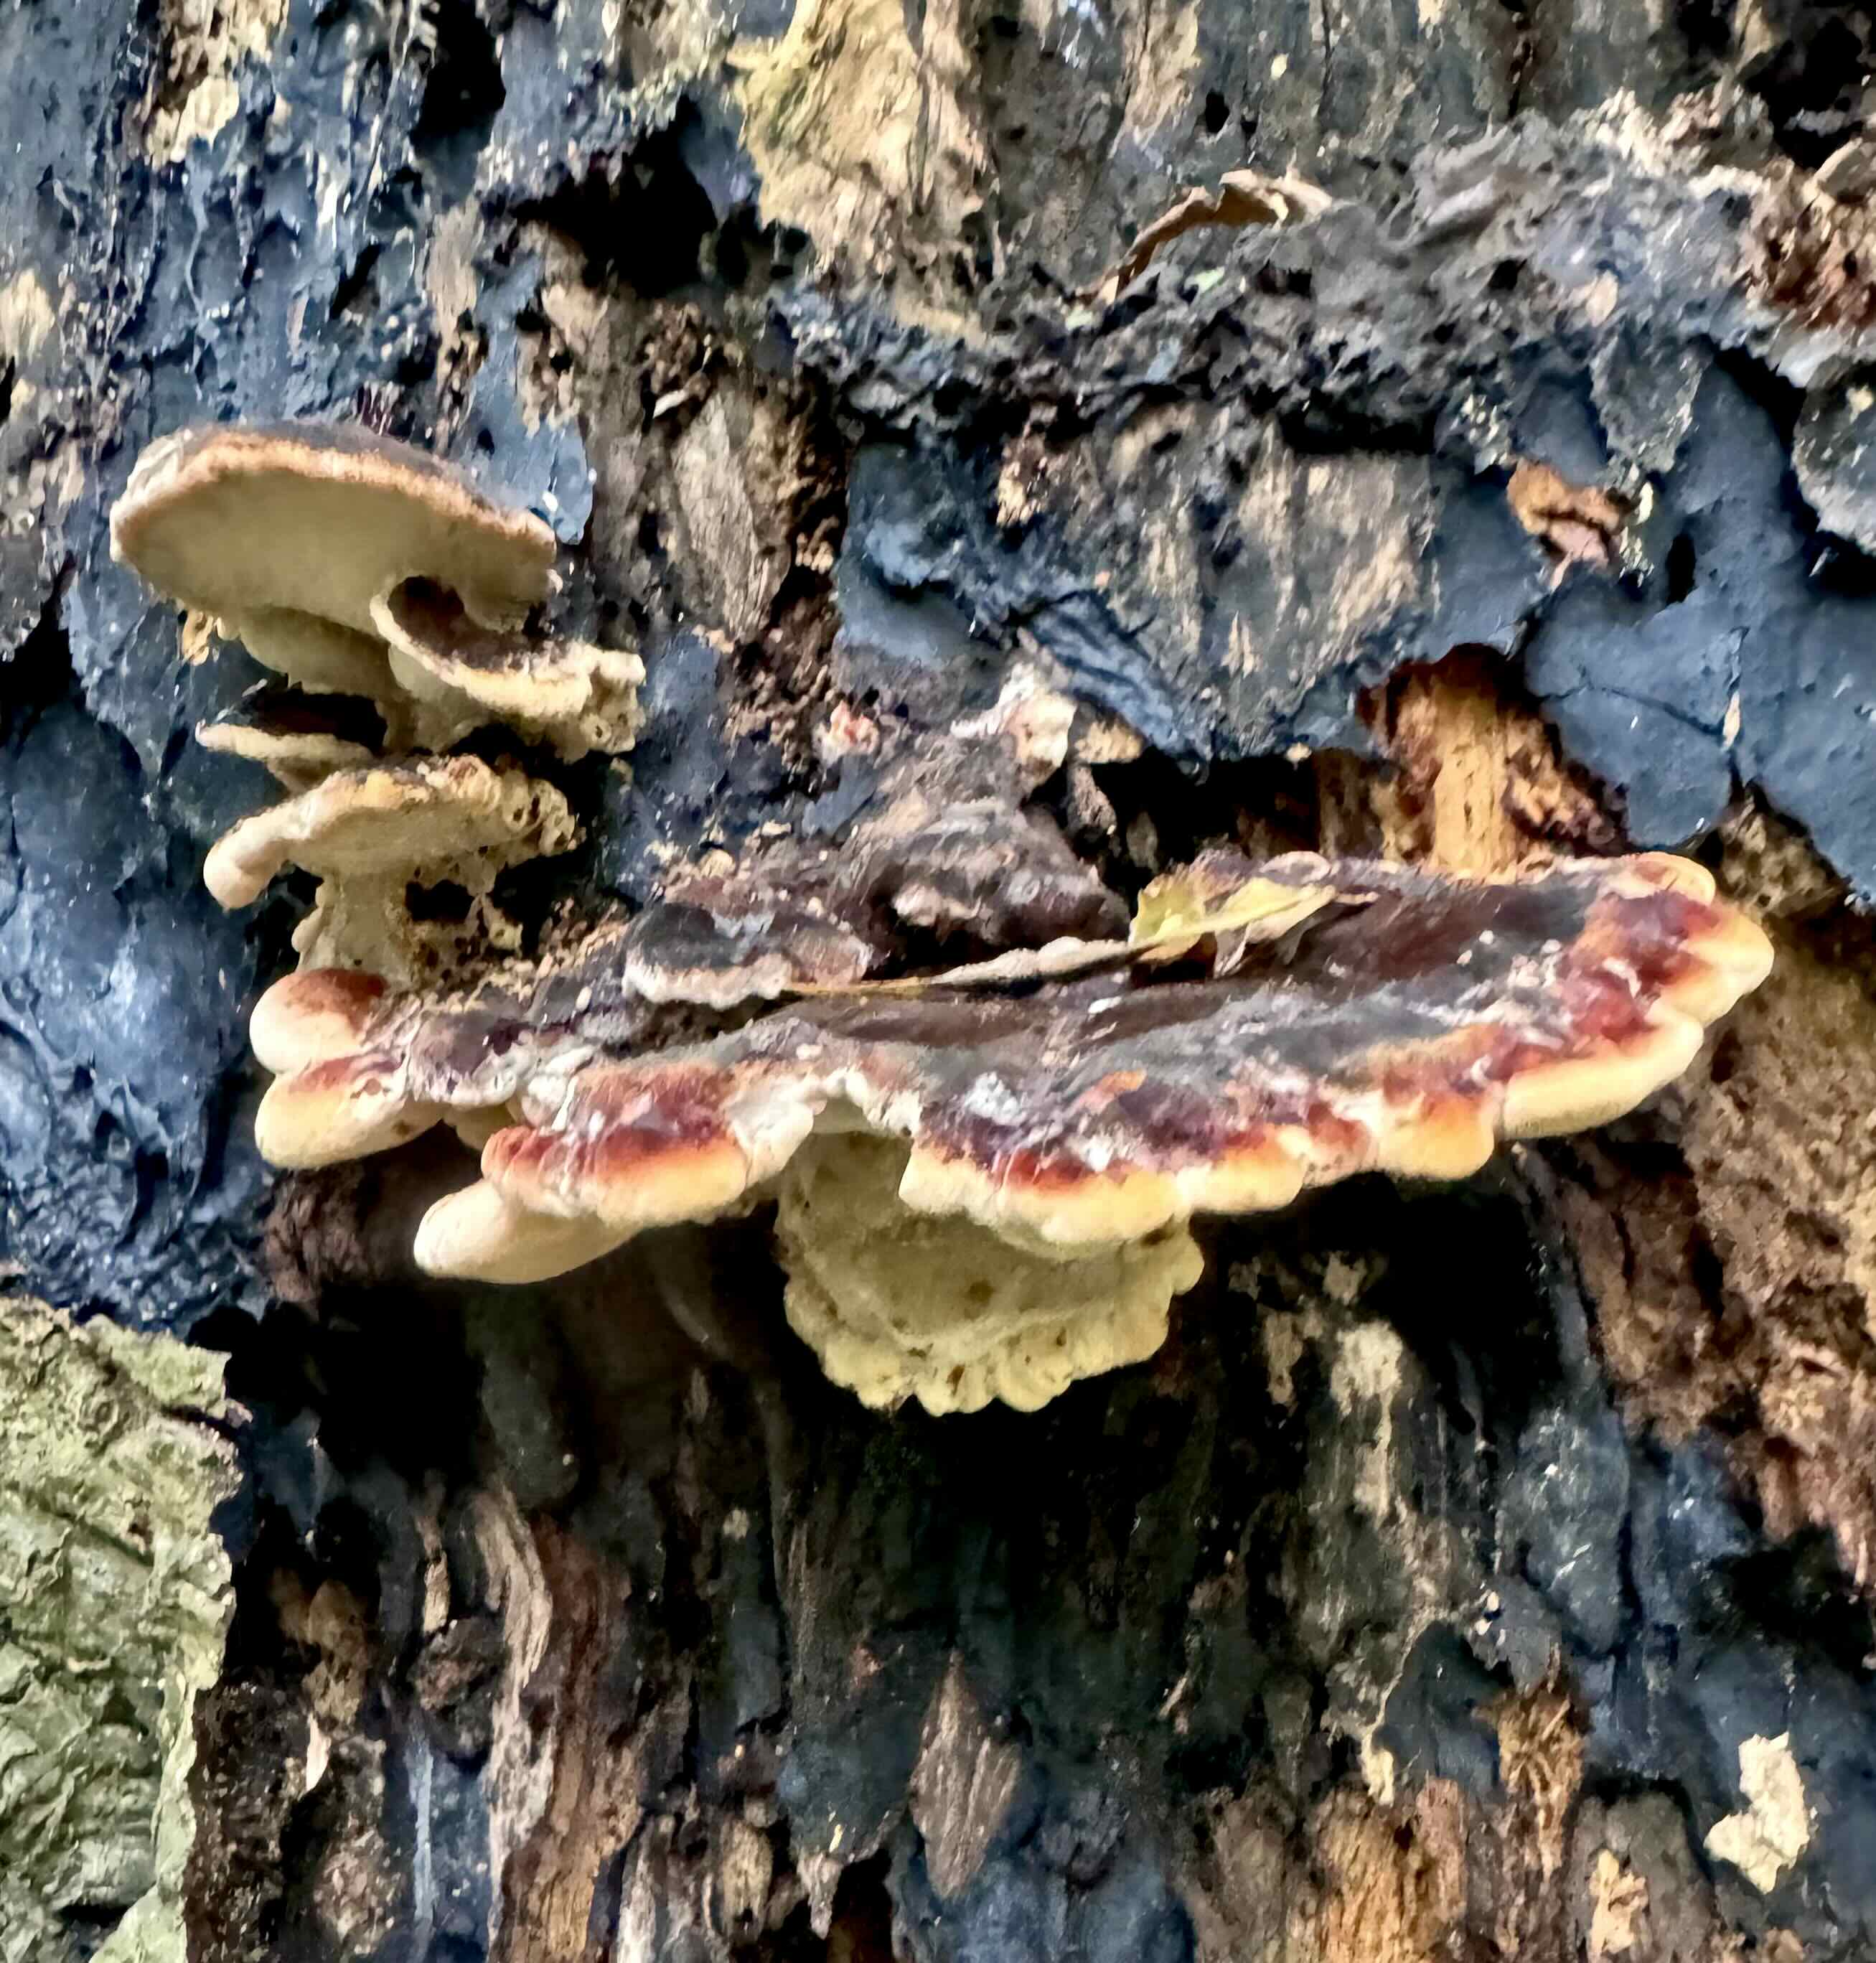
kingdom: Fungi
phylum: Basidiomycota
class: Agaricomycetes
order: Polyporales
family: Ischnodermataceae
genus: Ischnoderma
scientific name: Ischnoderma resinosum
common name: løv-tjæreporesvamp
